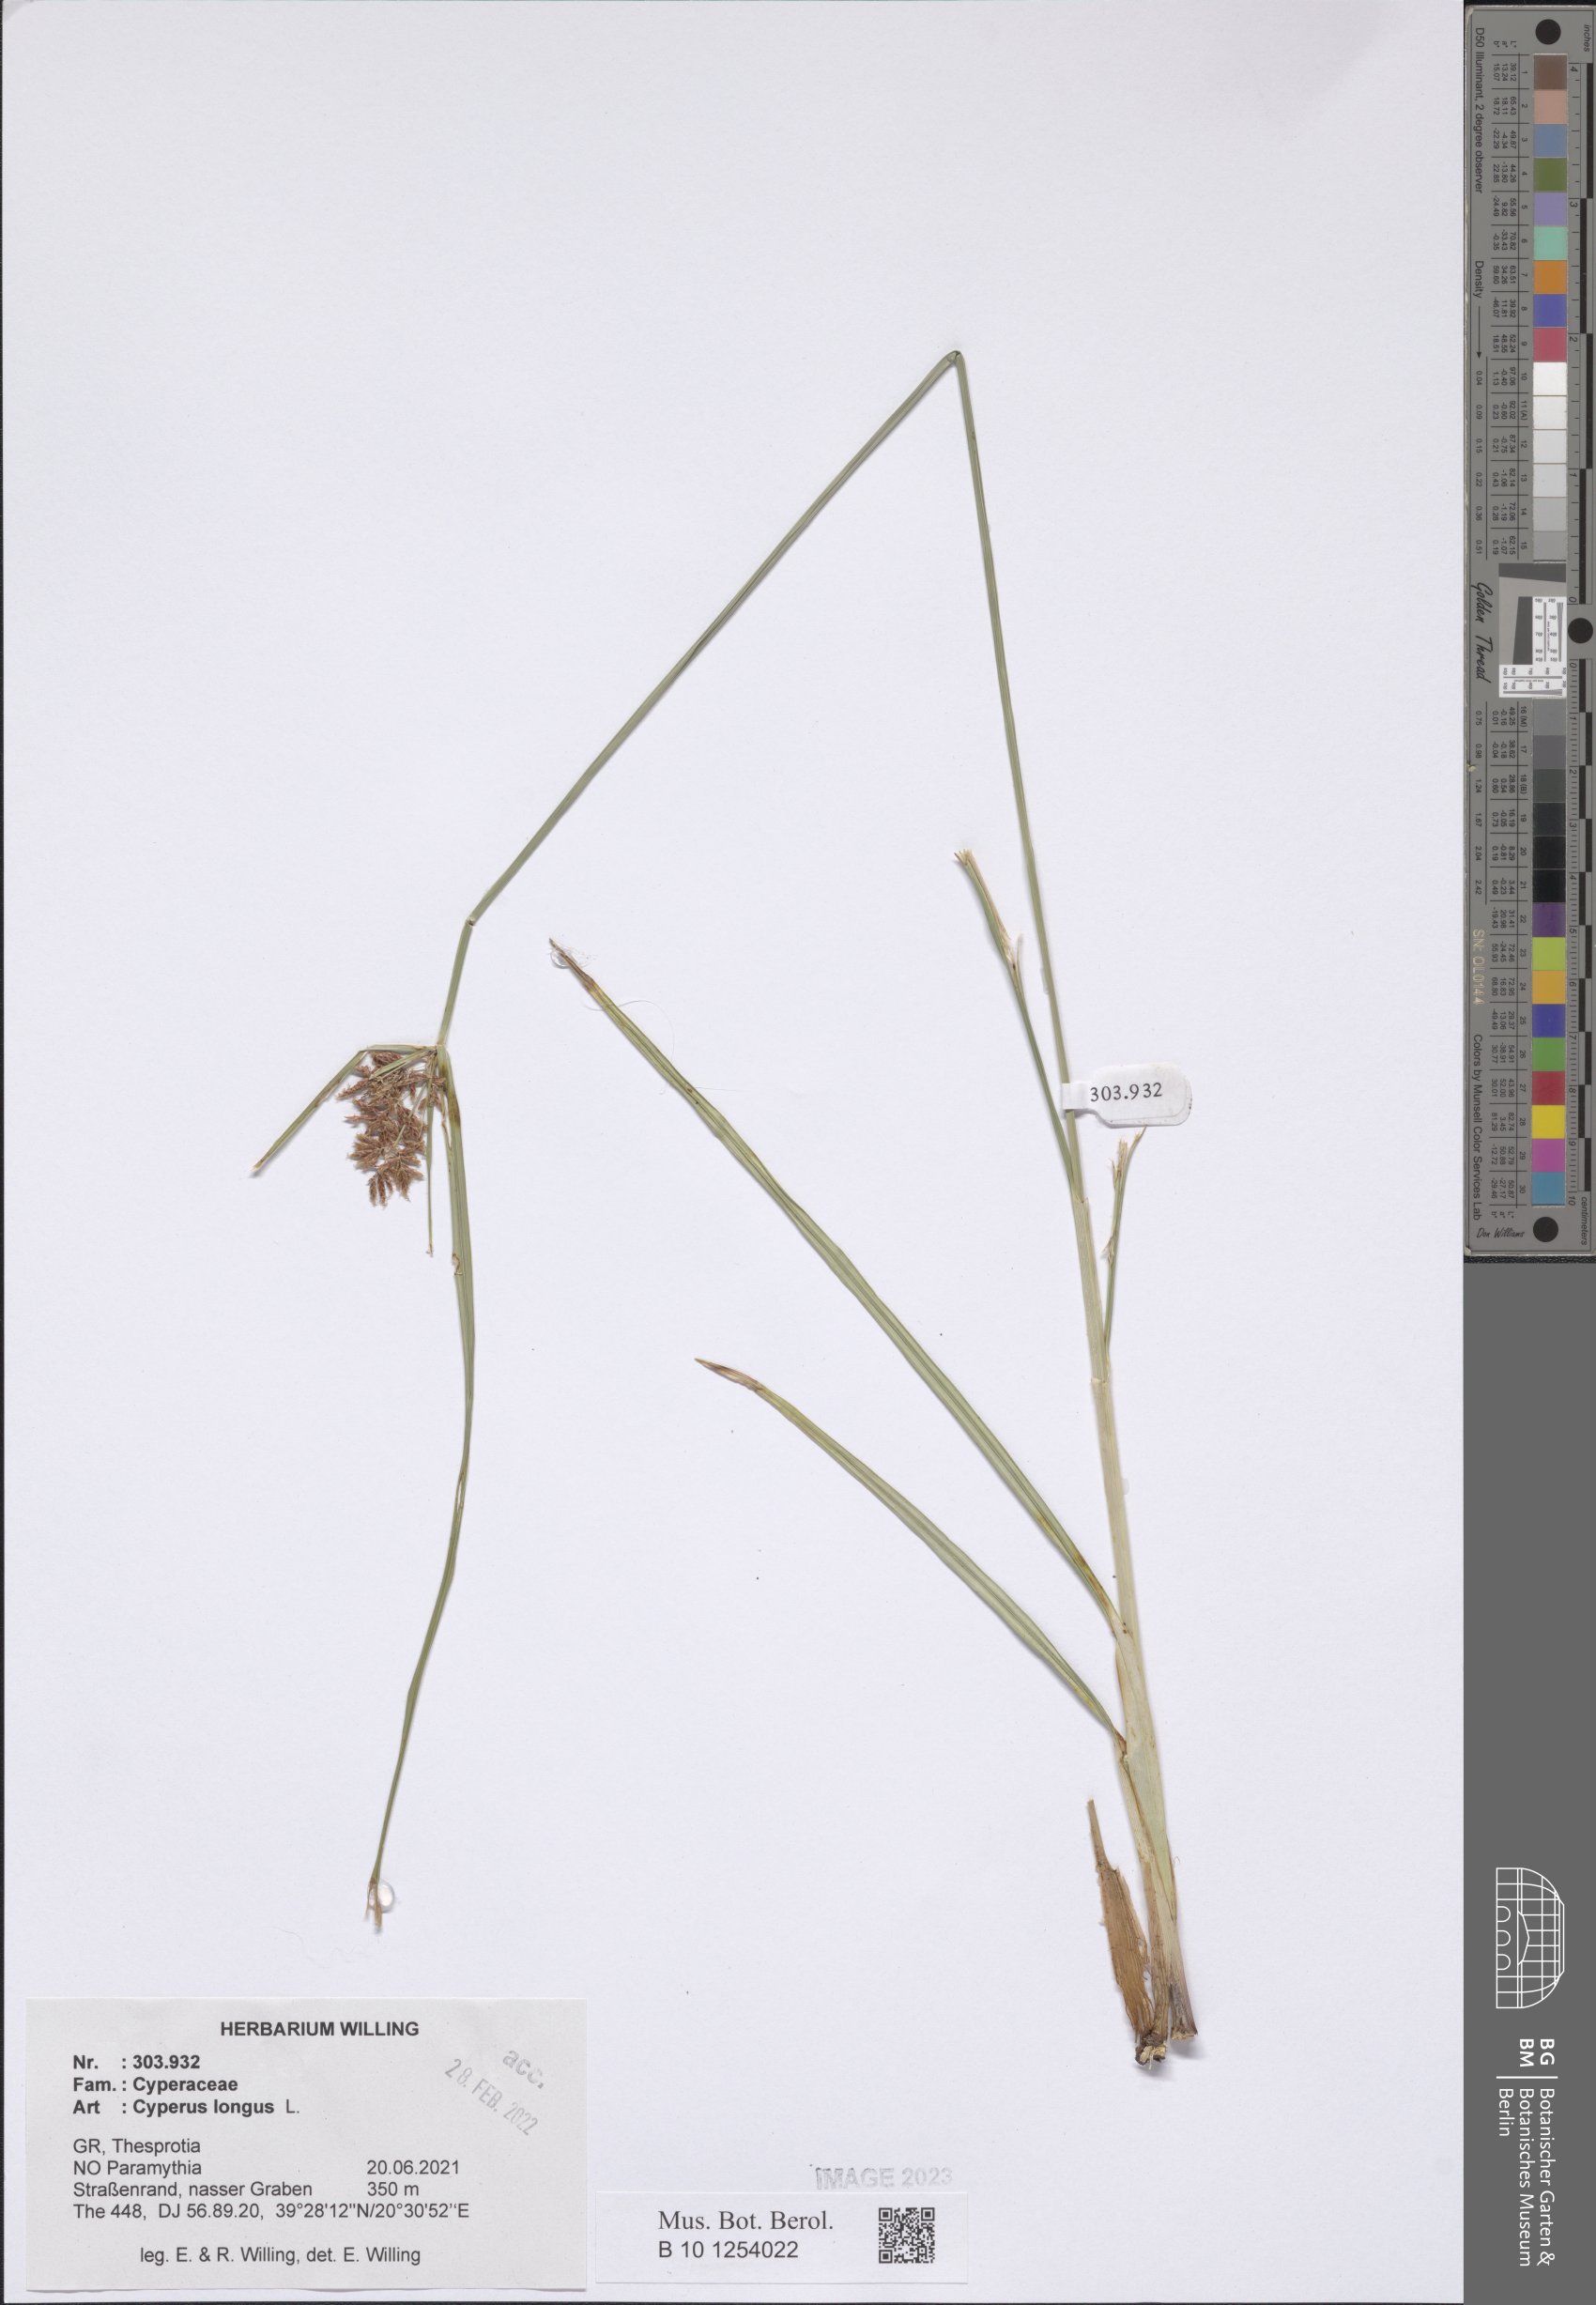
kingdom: Plantae
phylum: Tracheophyta
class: Liliopsida
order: Poales
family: Cyperaceae
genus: Cyperus
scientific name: Cyperus longus
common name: Galingale
